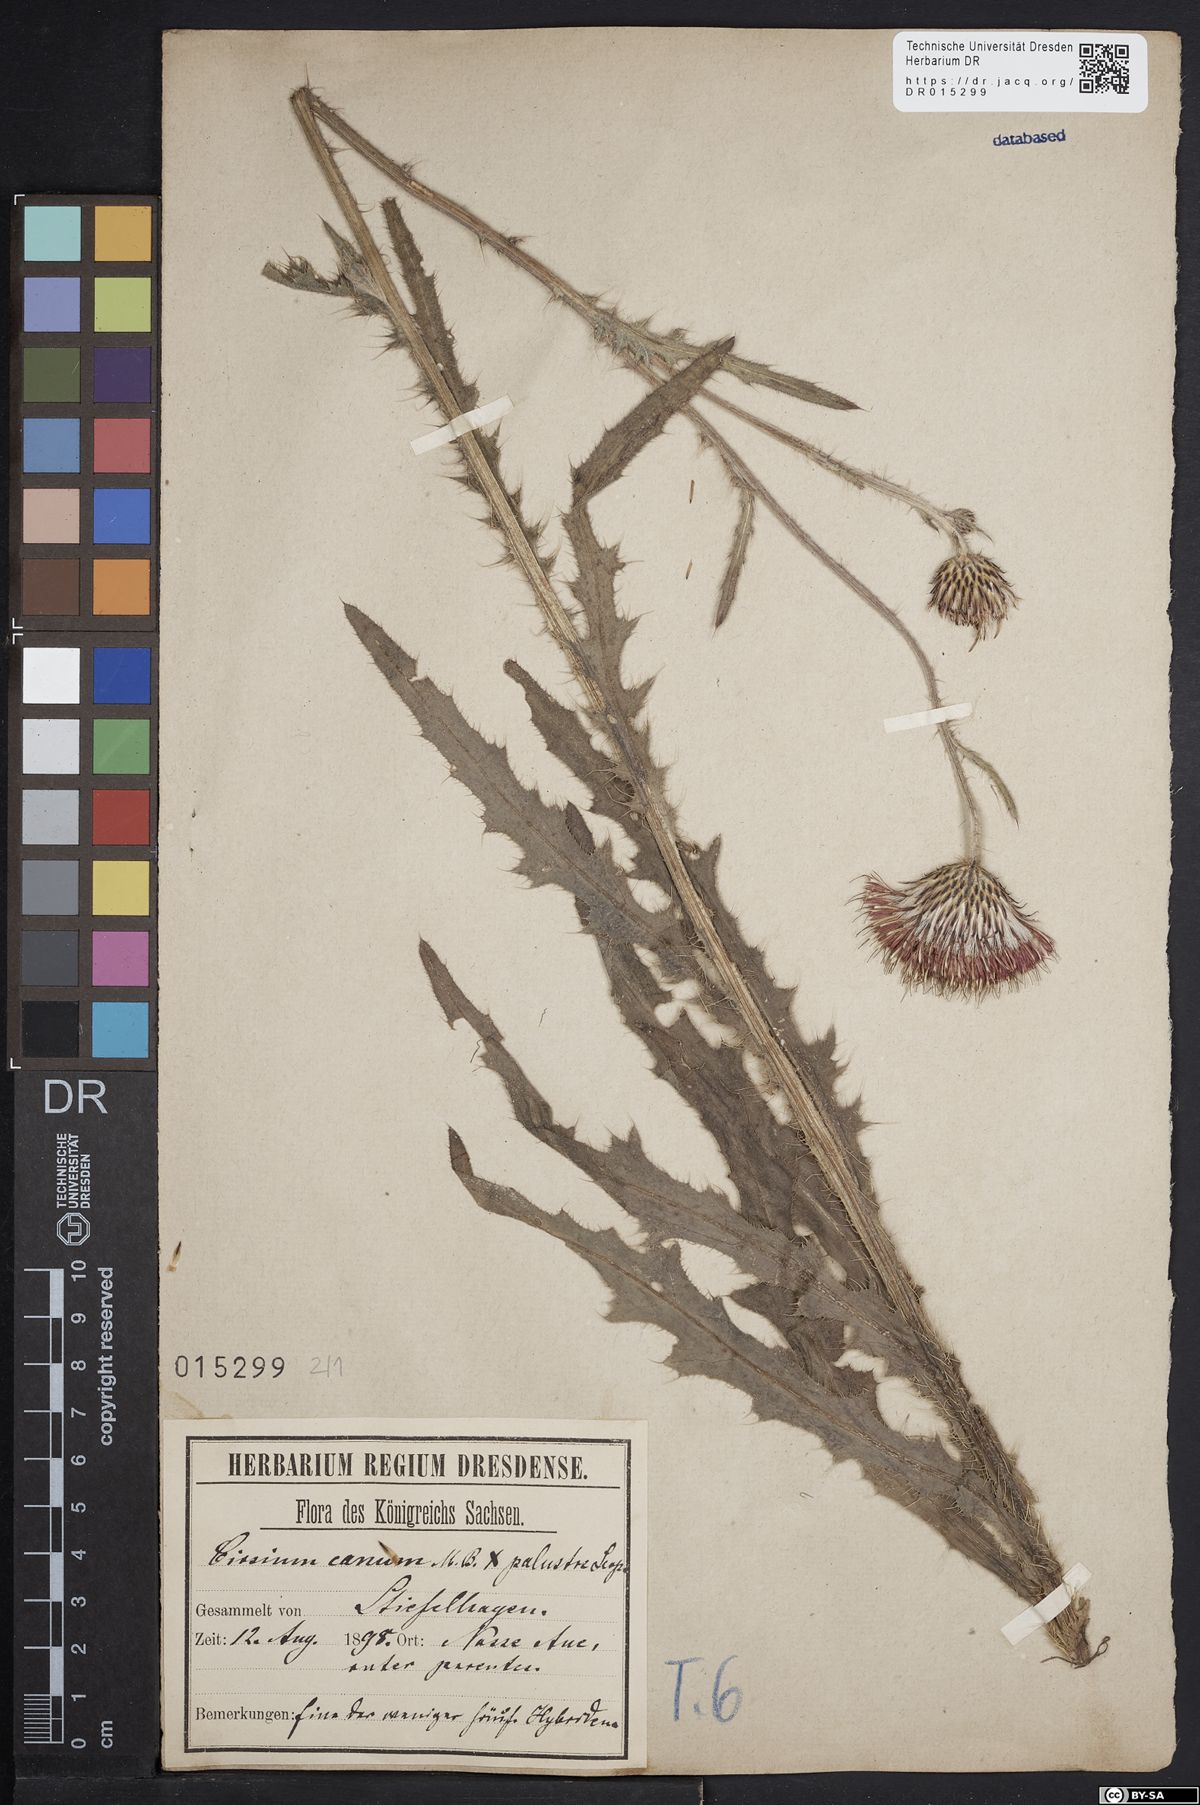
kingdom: Plantae
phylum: Tracheophyta
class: Magnoliopsida
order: Asterales
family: Asteraceae
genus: Cirsium
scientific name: Cirsium silesiacum
